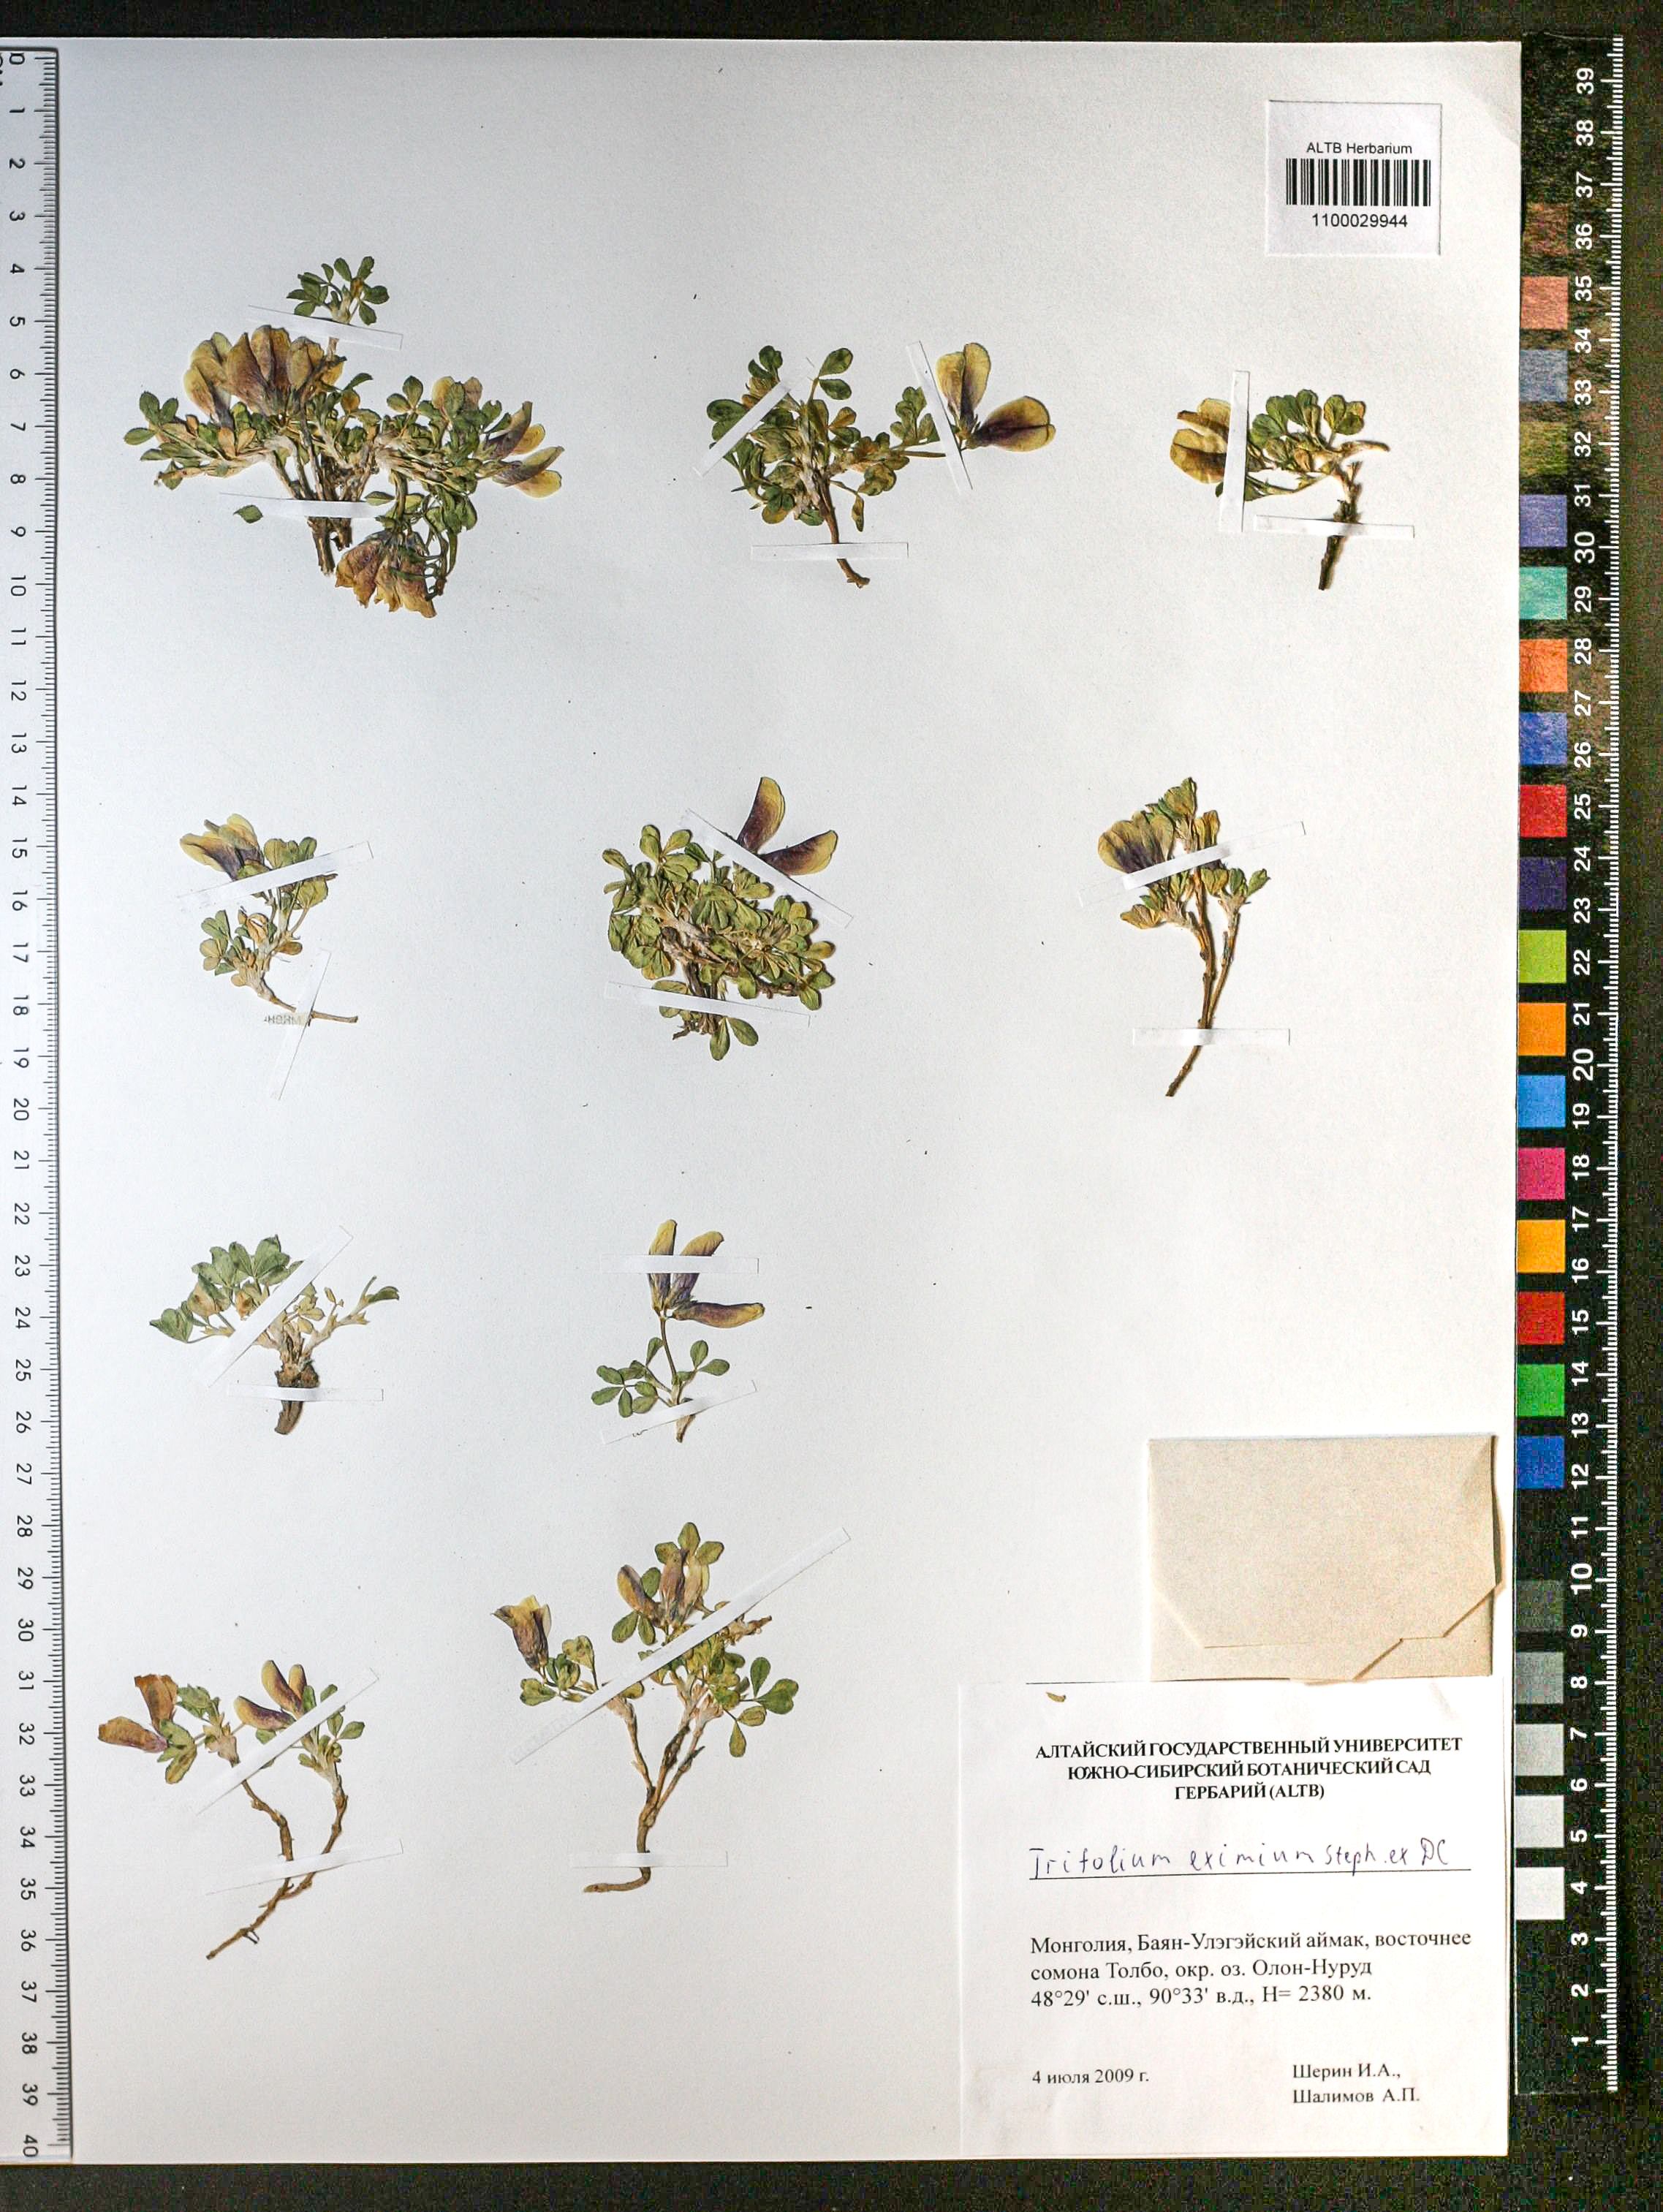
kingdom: Plantae
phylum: Tracheophyta
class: Magnoliopsida
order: Fabales
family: Fabaceae
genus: Trifolium
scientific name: Trifolium eximium
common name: Excellent clover
